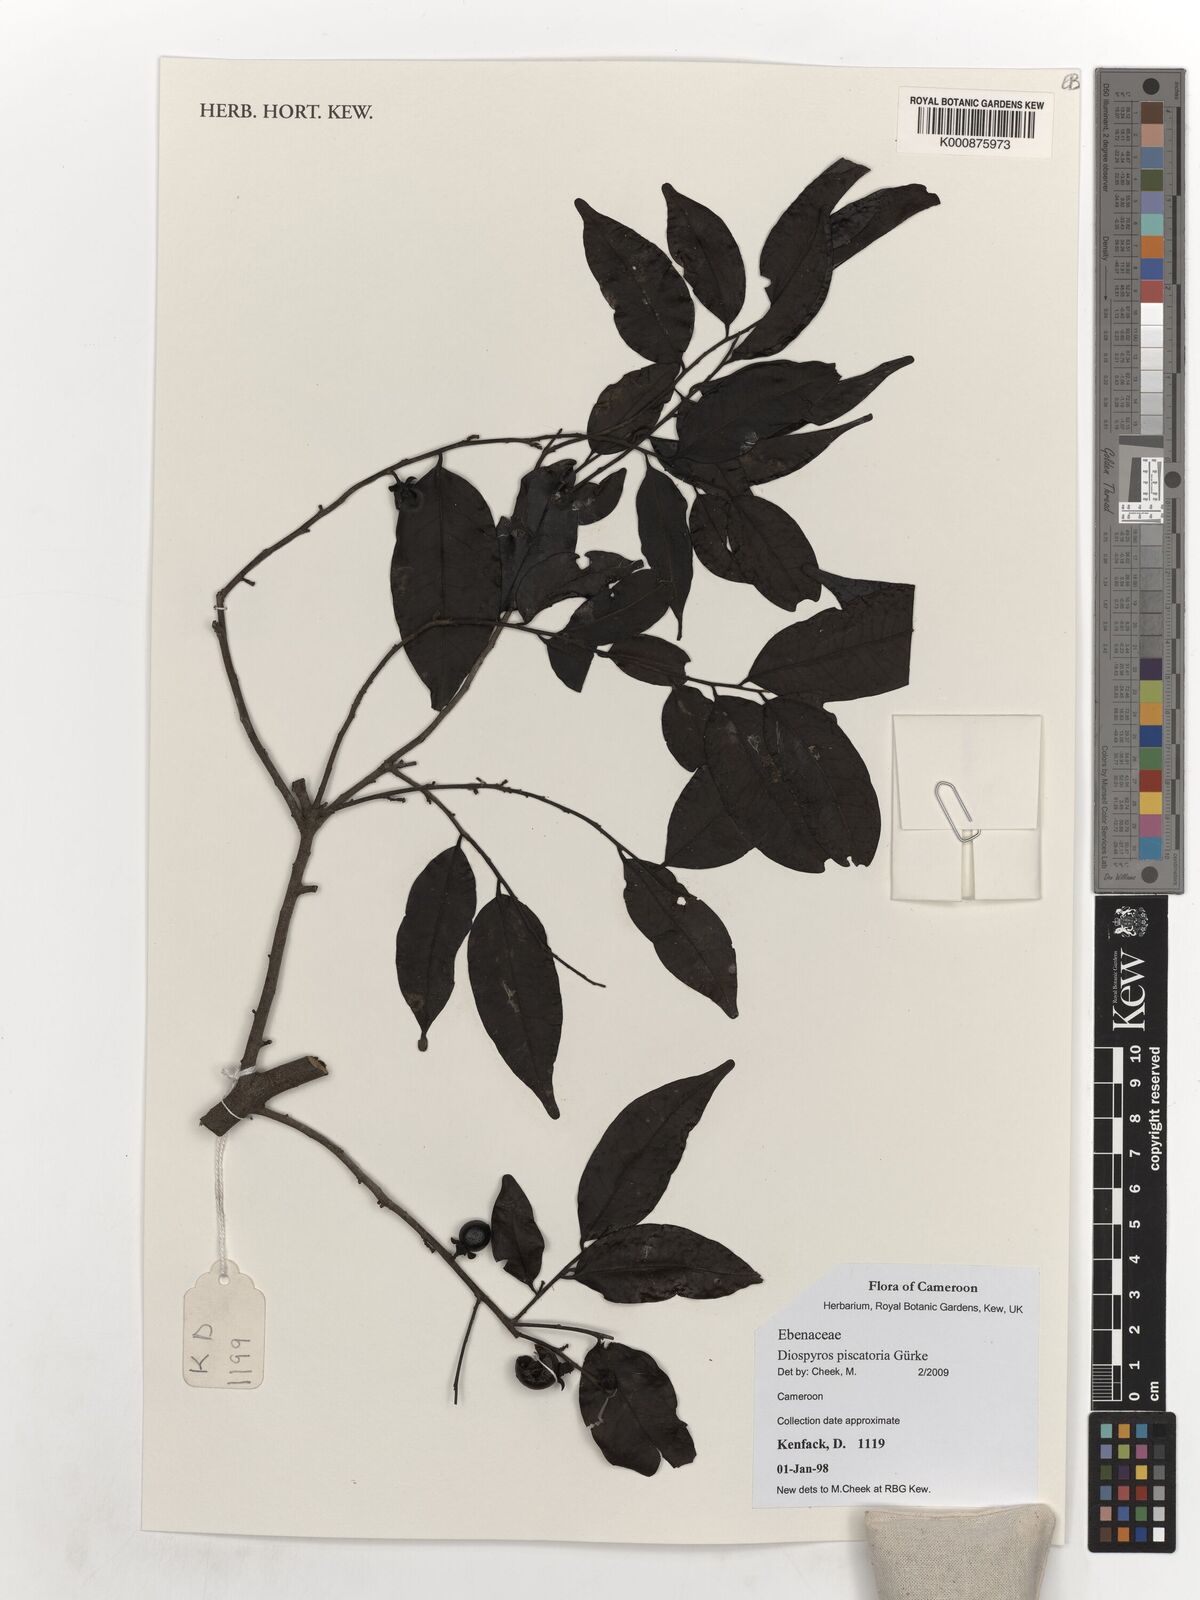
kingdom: Plantae
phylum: Tracheophyta
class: Magnoliopsida
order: Ericales
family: Ebenaceae
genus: Diospyros
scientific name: Diospyros piscatoria
